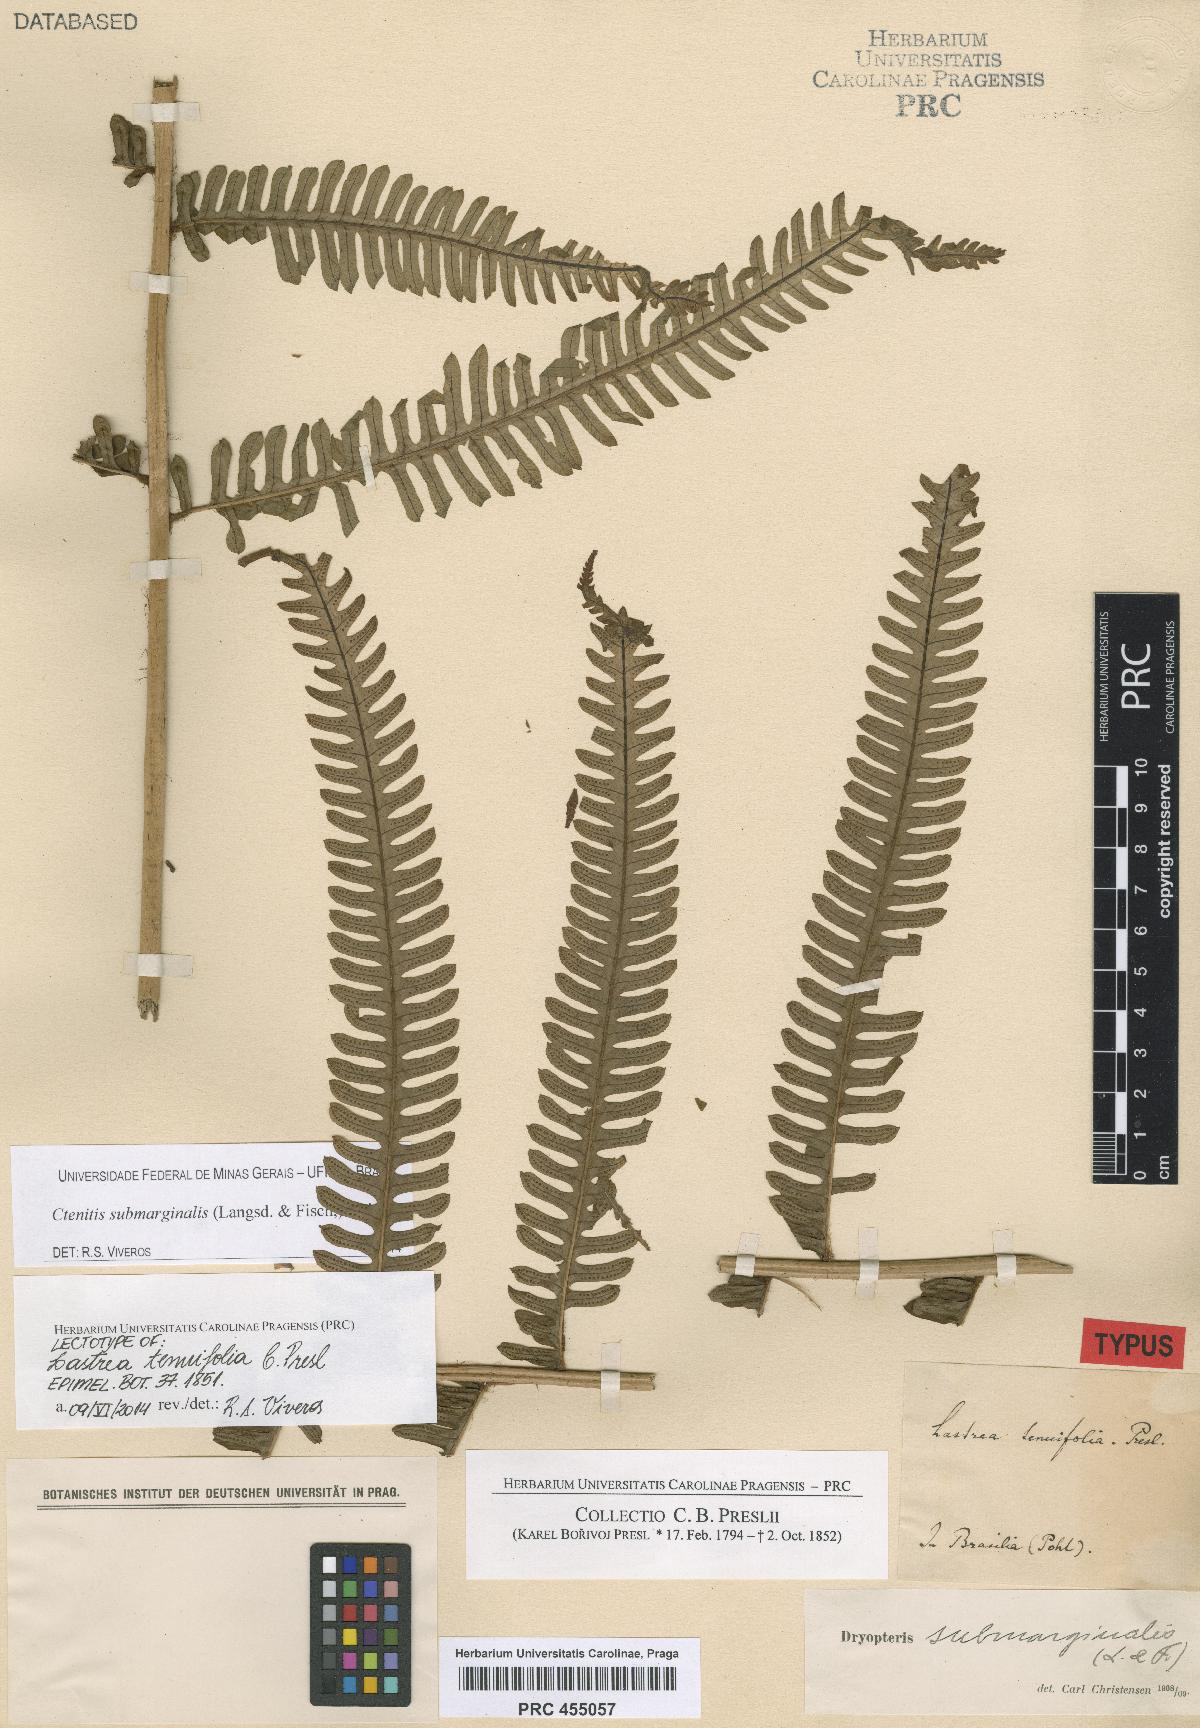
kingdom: Plantae
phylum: Tracheophyta
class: Polypodiopsida
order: Polypodiales
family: Dryopteridaceae
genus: Ctenitis
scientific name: Ctenitis submarginalis
